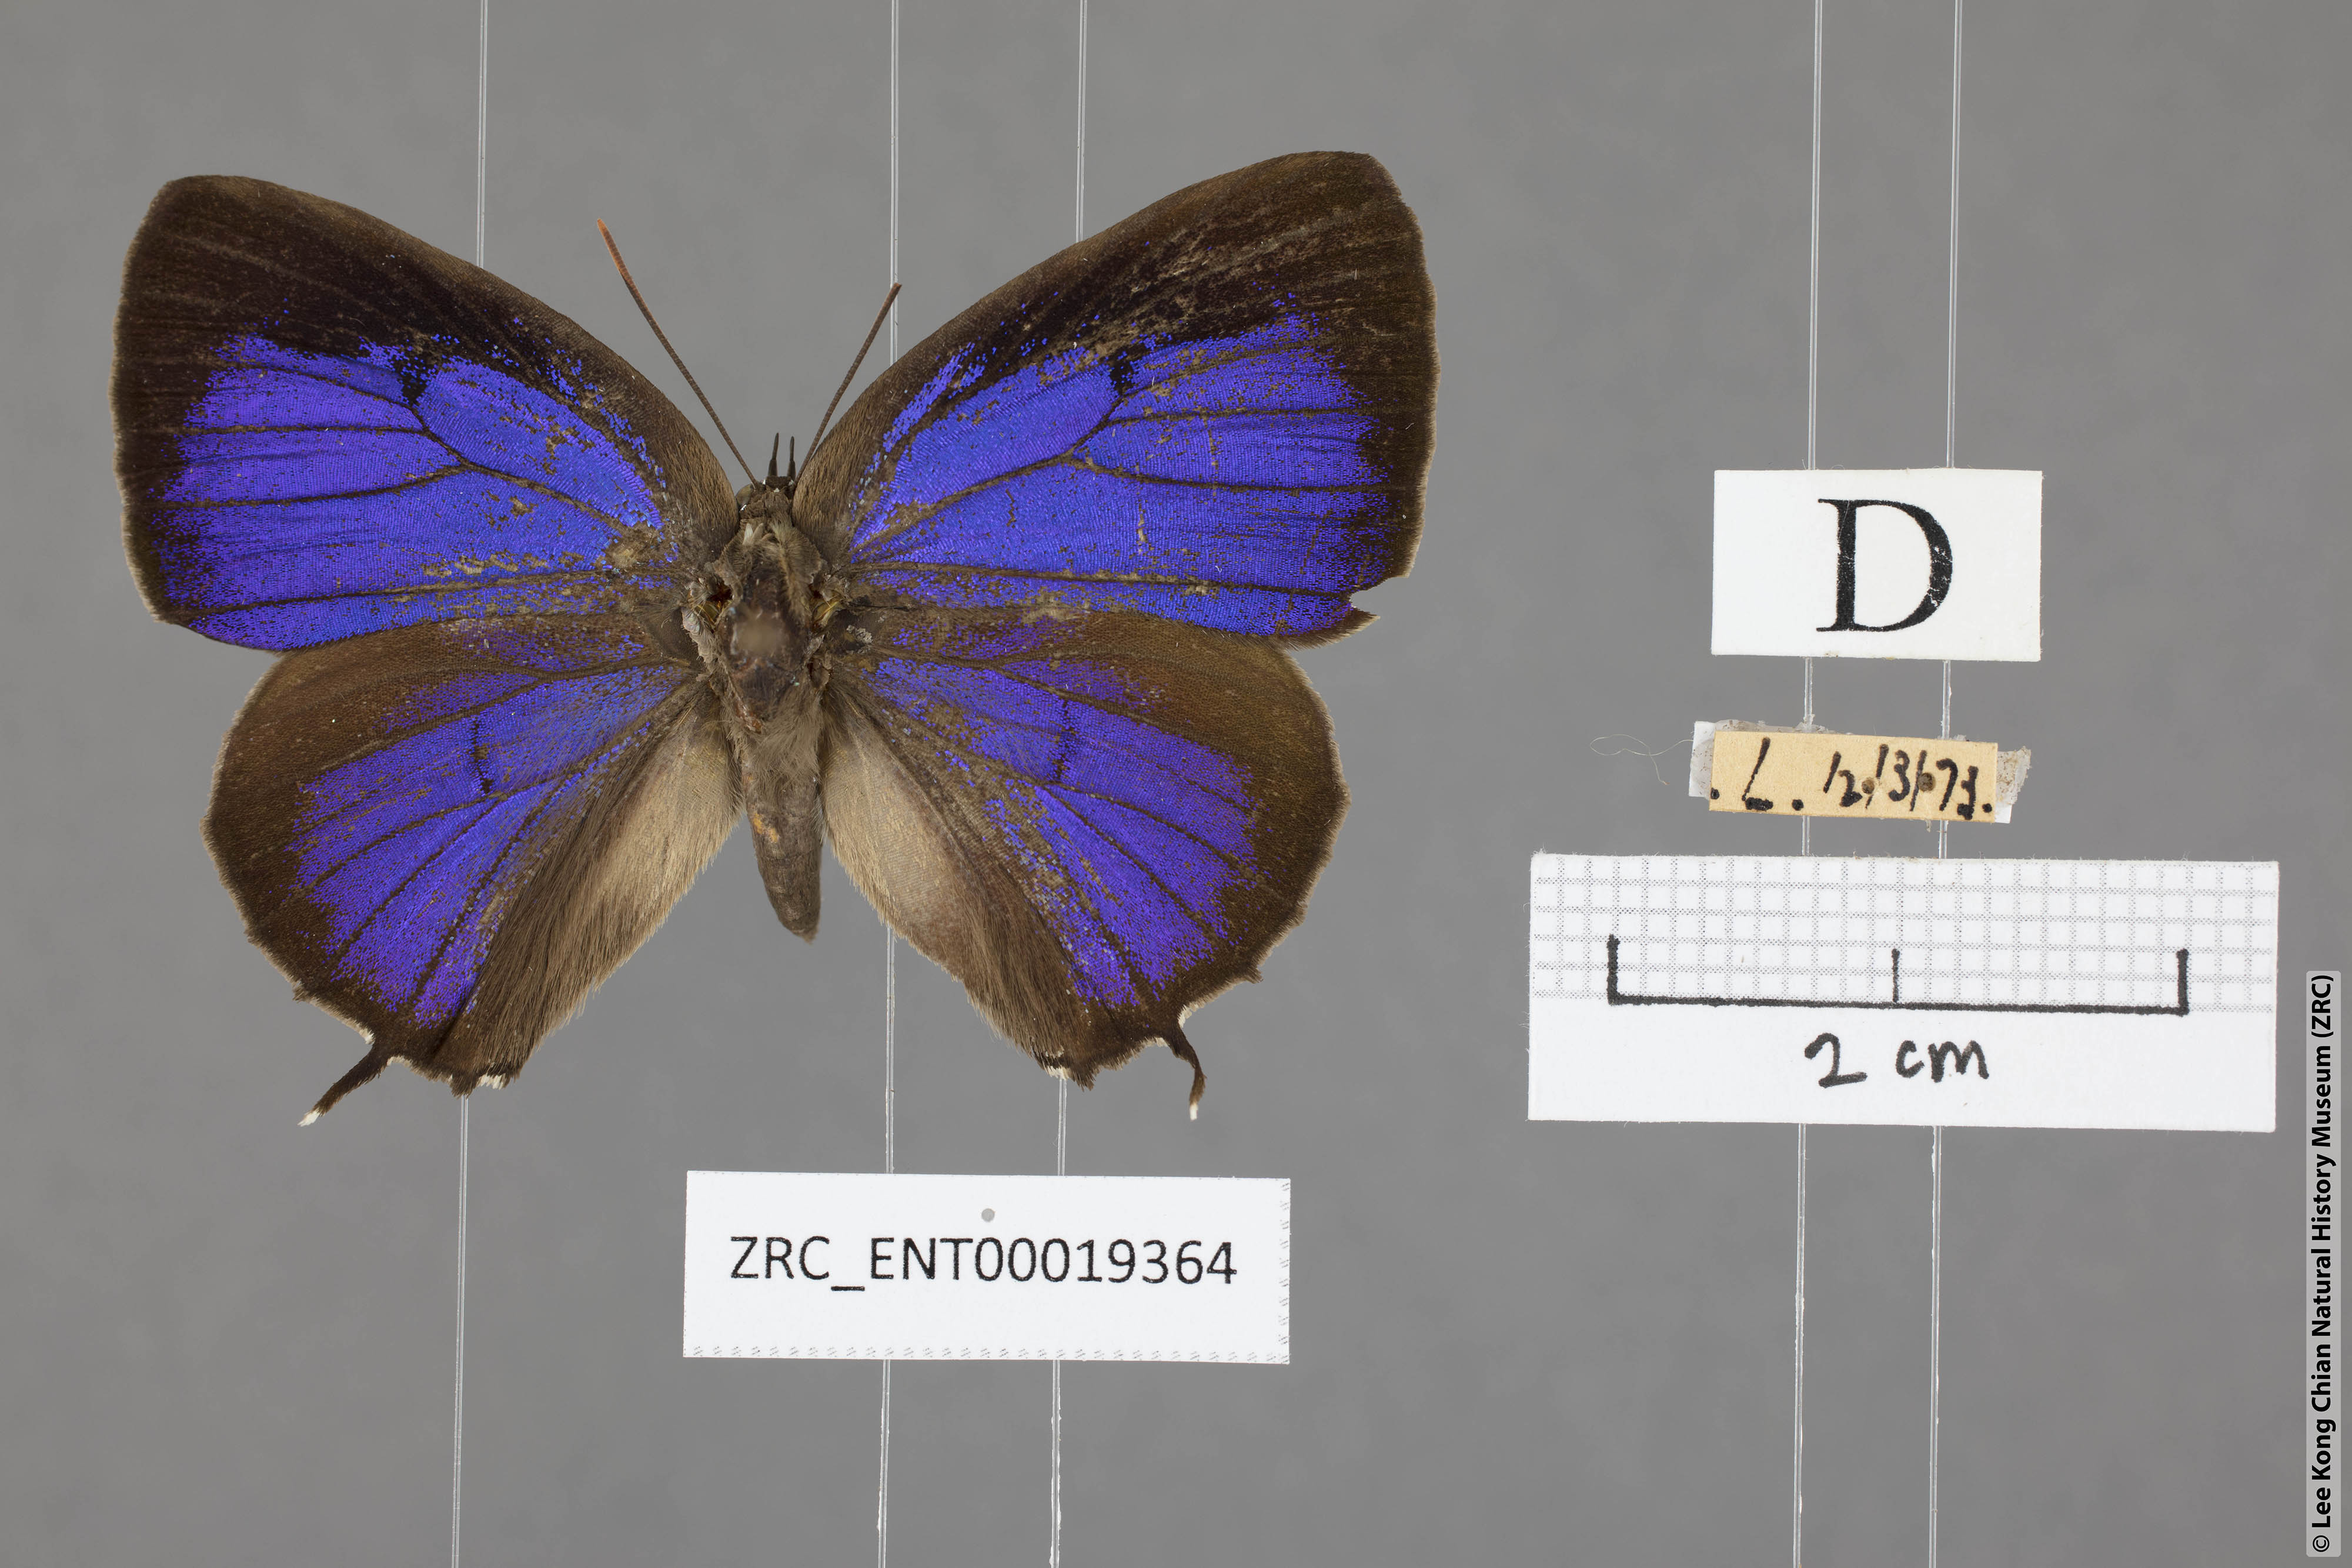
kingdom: Animalia
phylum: Arthropoda
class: Insecta
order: Lepidoptera
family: Lycaenidae
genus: Arhopala
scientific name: Arhopala corinda
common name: Ultramarine oakblue
